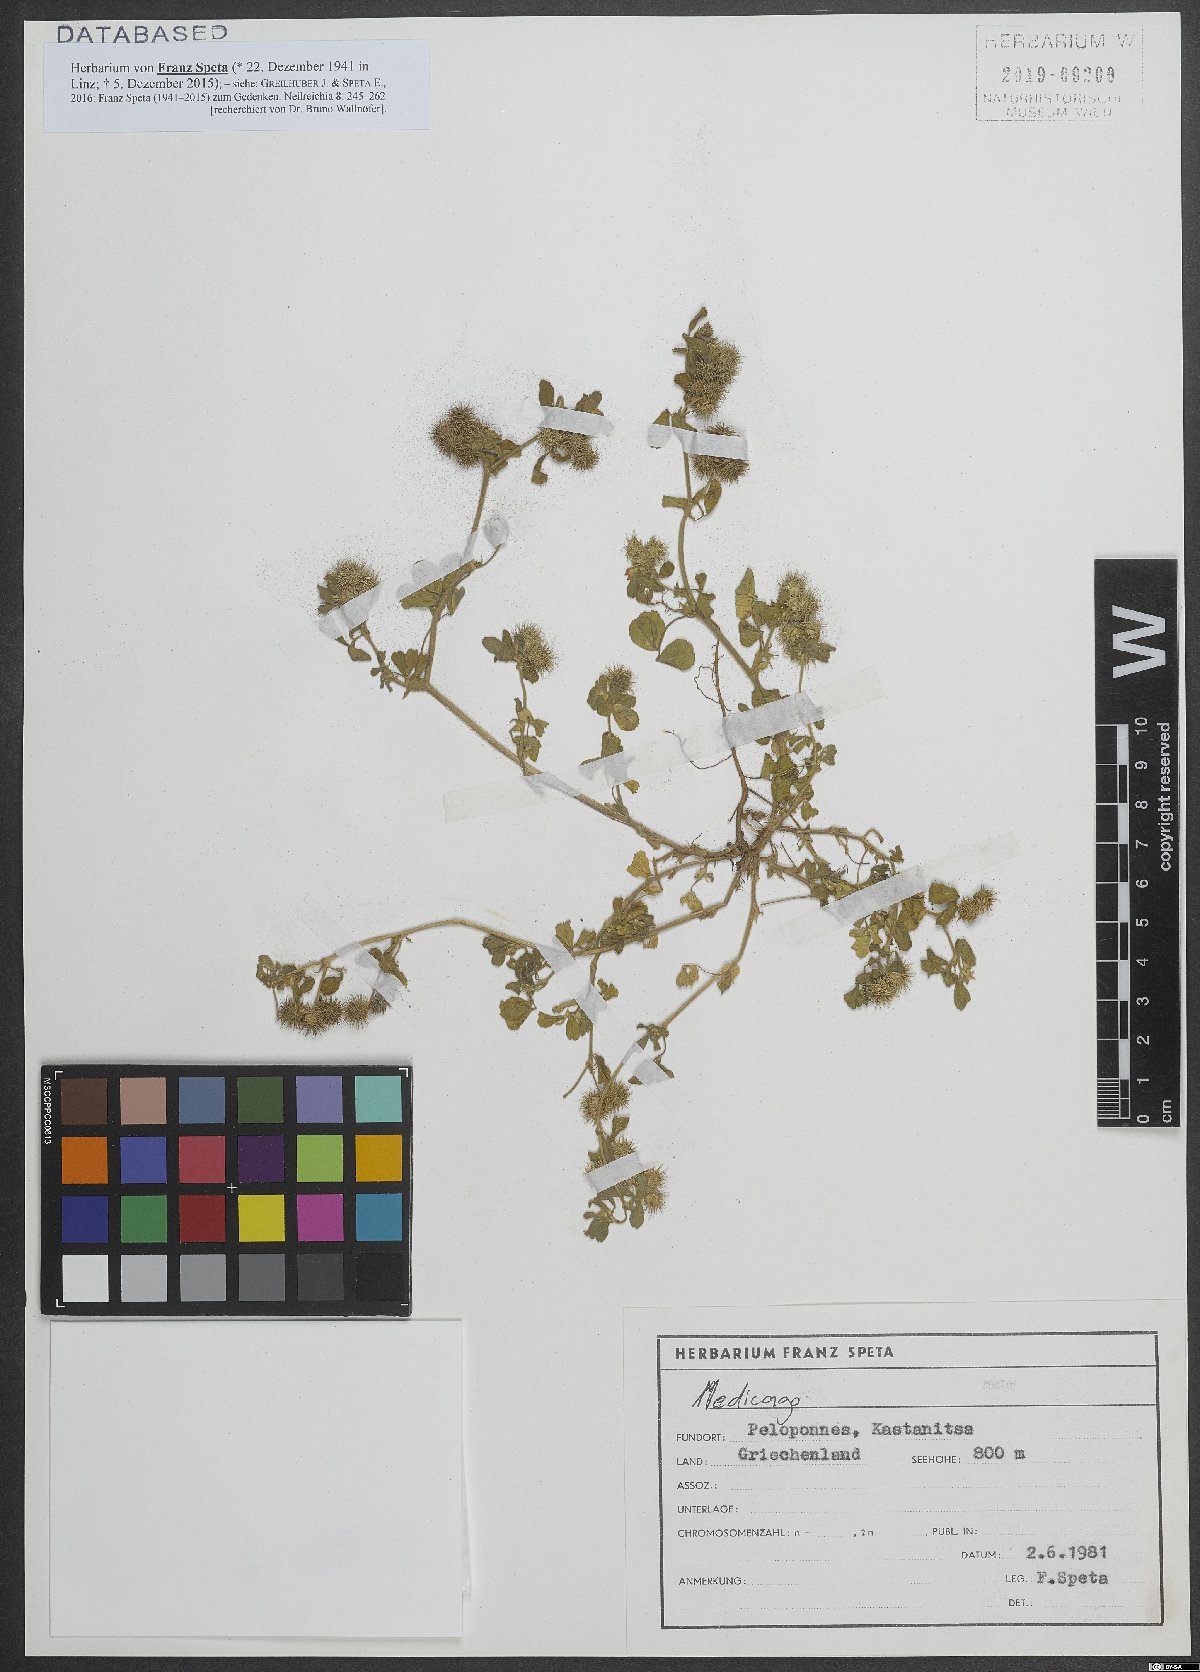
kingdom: Plantae
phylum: Tracheophyta
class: Magnoliopsida
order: Fabales
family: Fabaceae
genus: Medicago
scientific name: Medicago minima
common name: Little bur-clover
